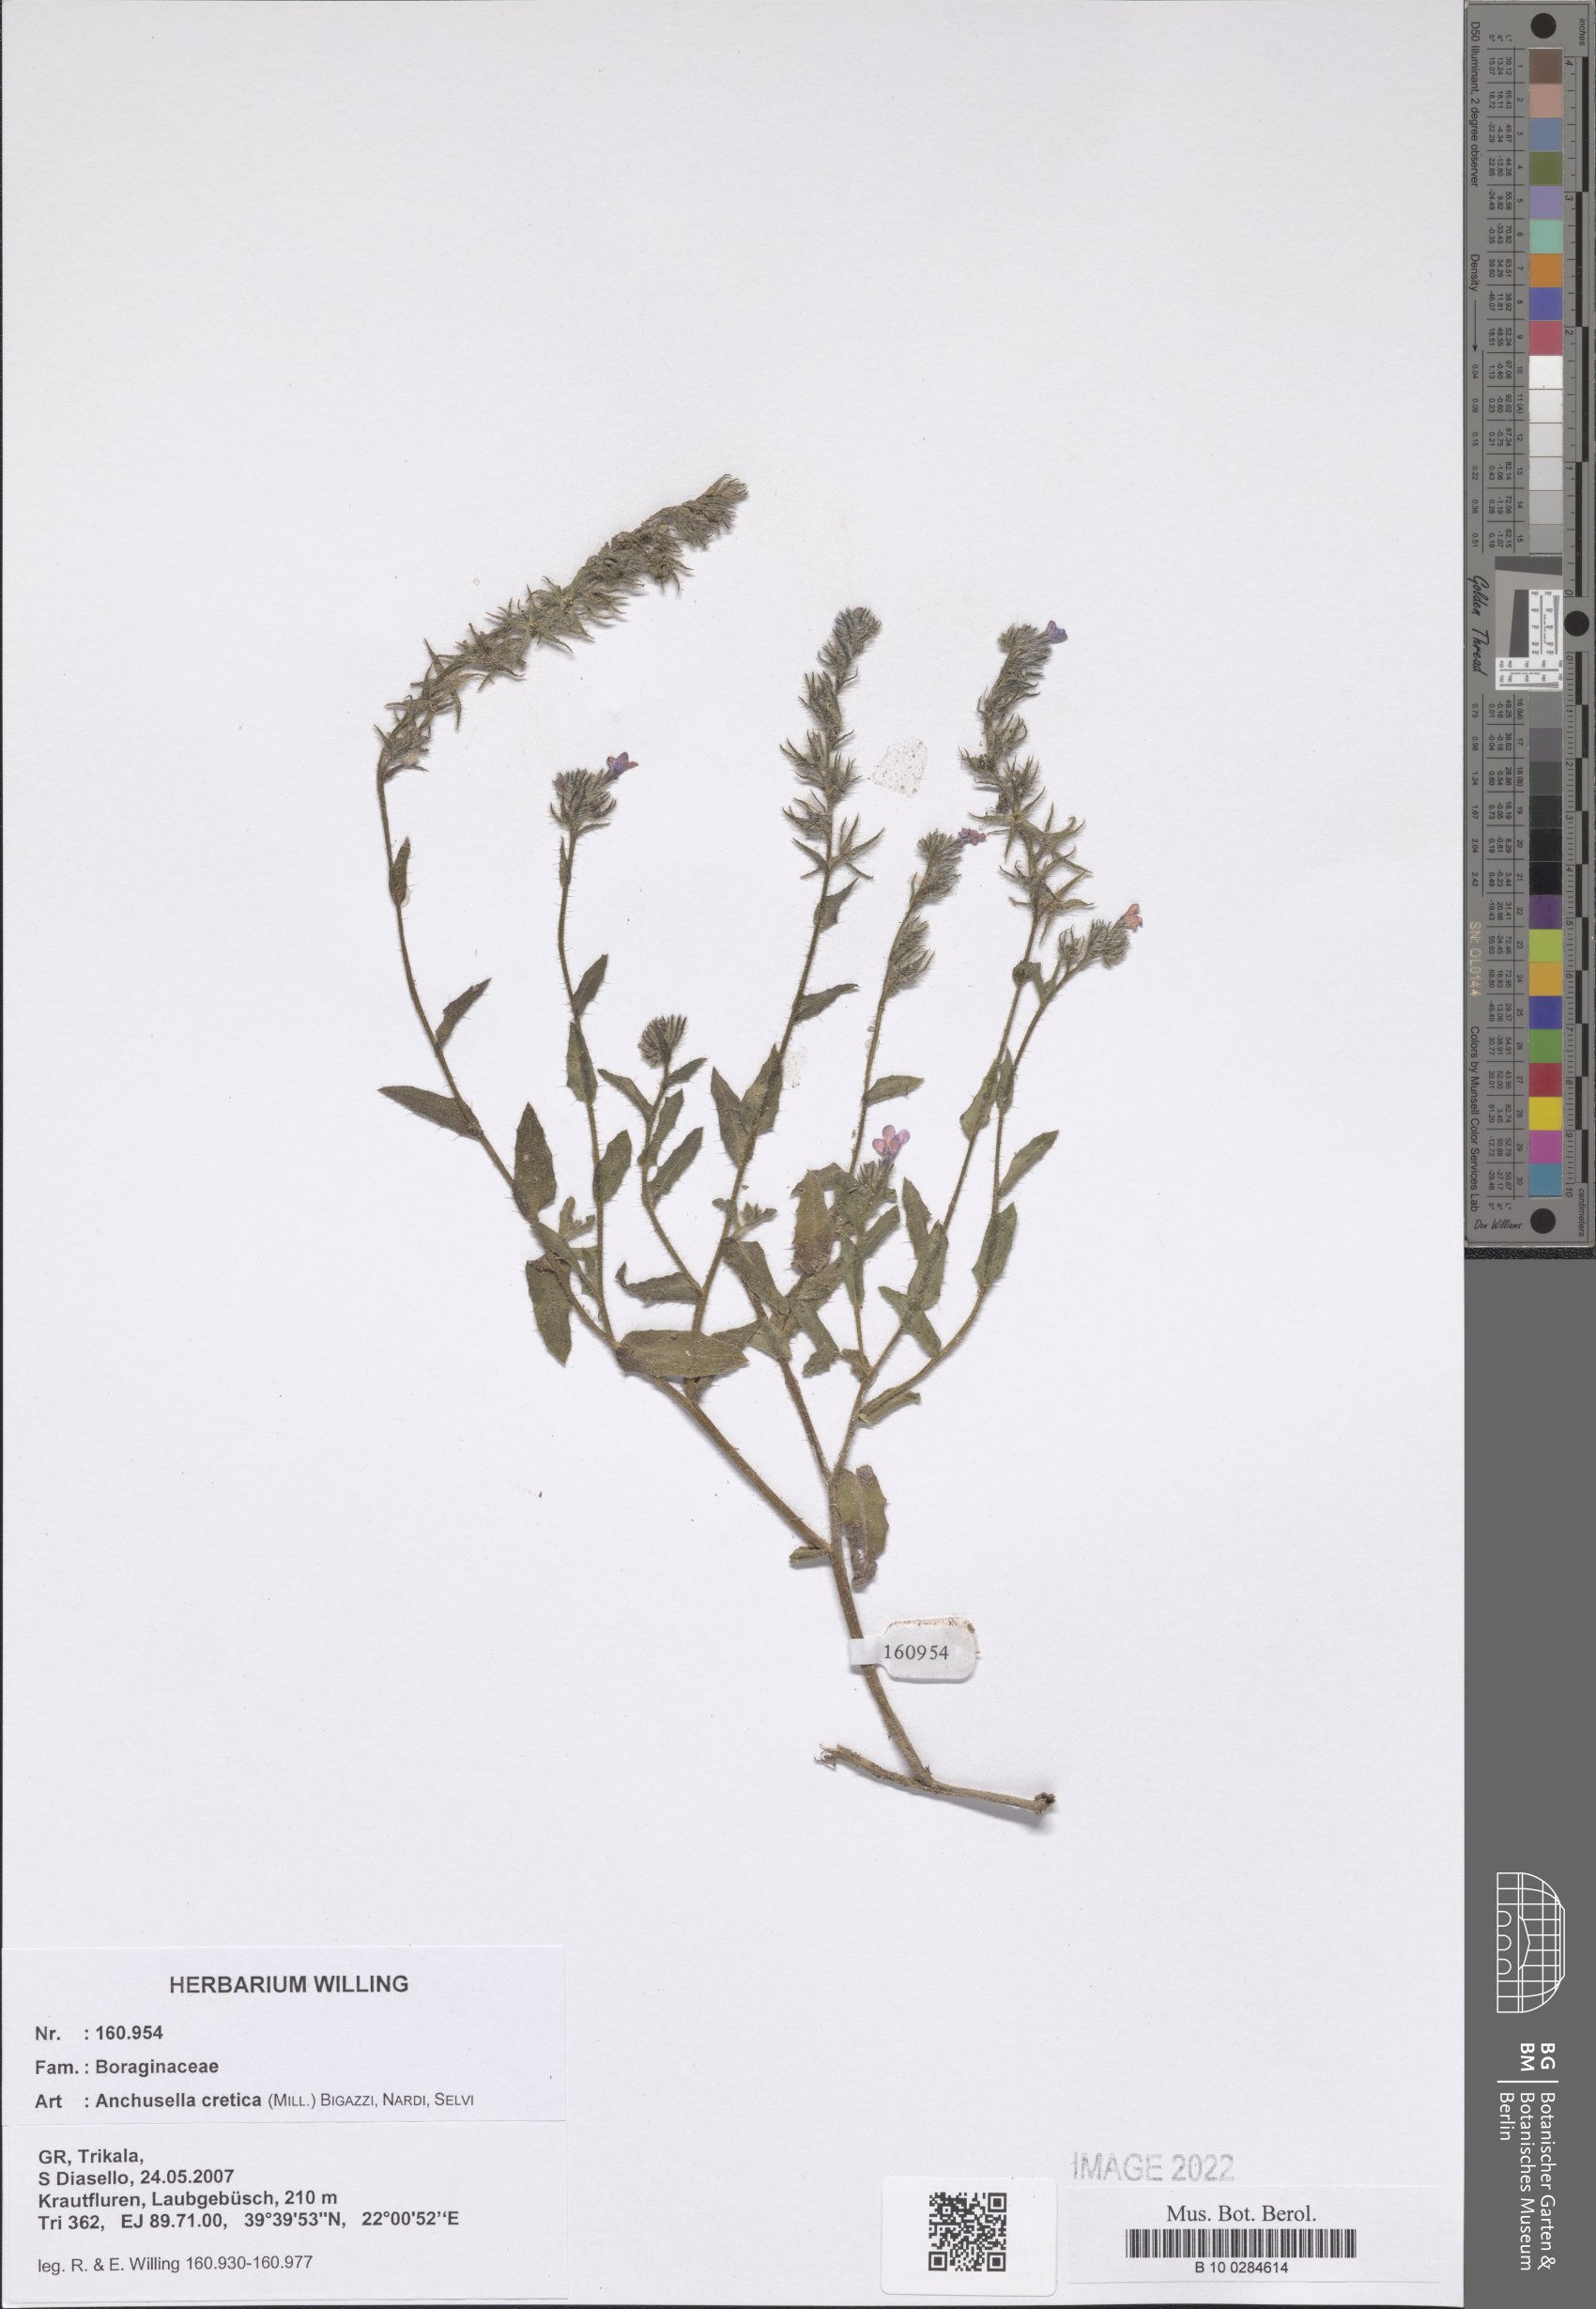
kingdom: Plantae
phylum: Tracheophyta
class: Magnoliopsida
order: Boraginales
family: Boraginaceae
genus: Lycopsis
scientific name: Lycopsis arvensis
